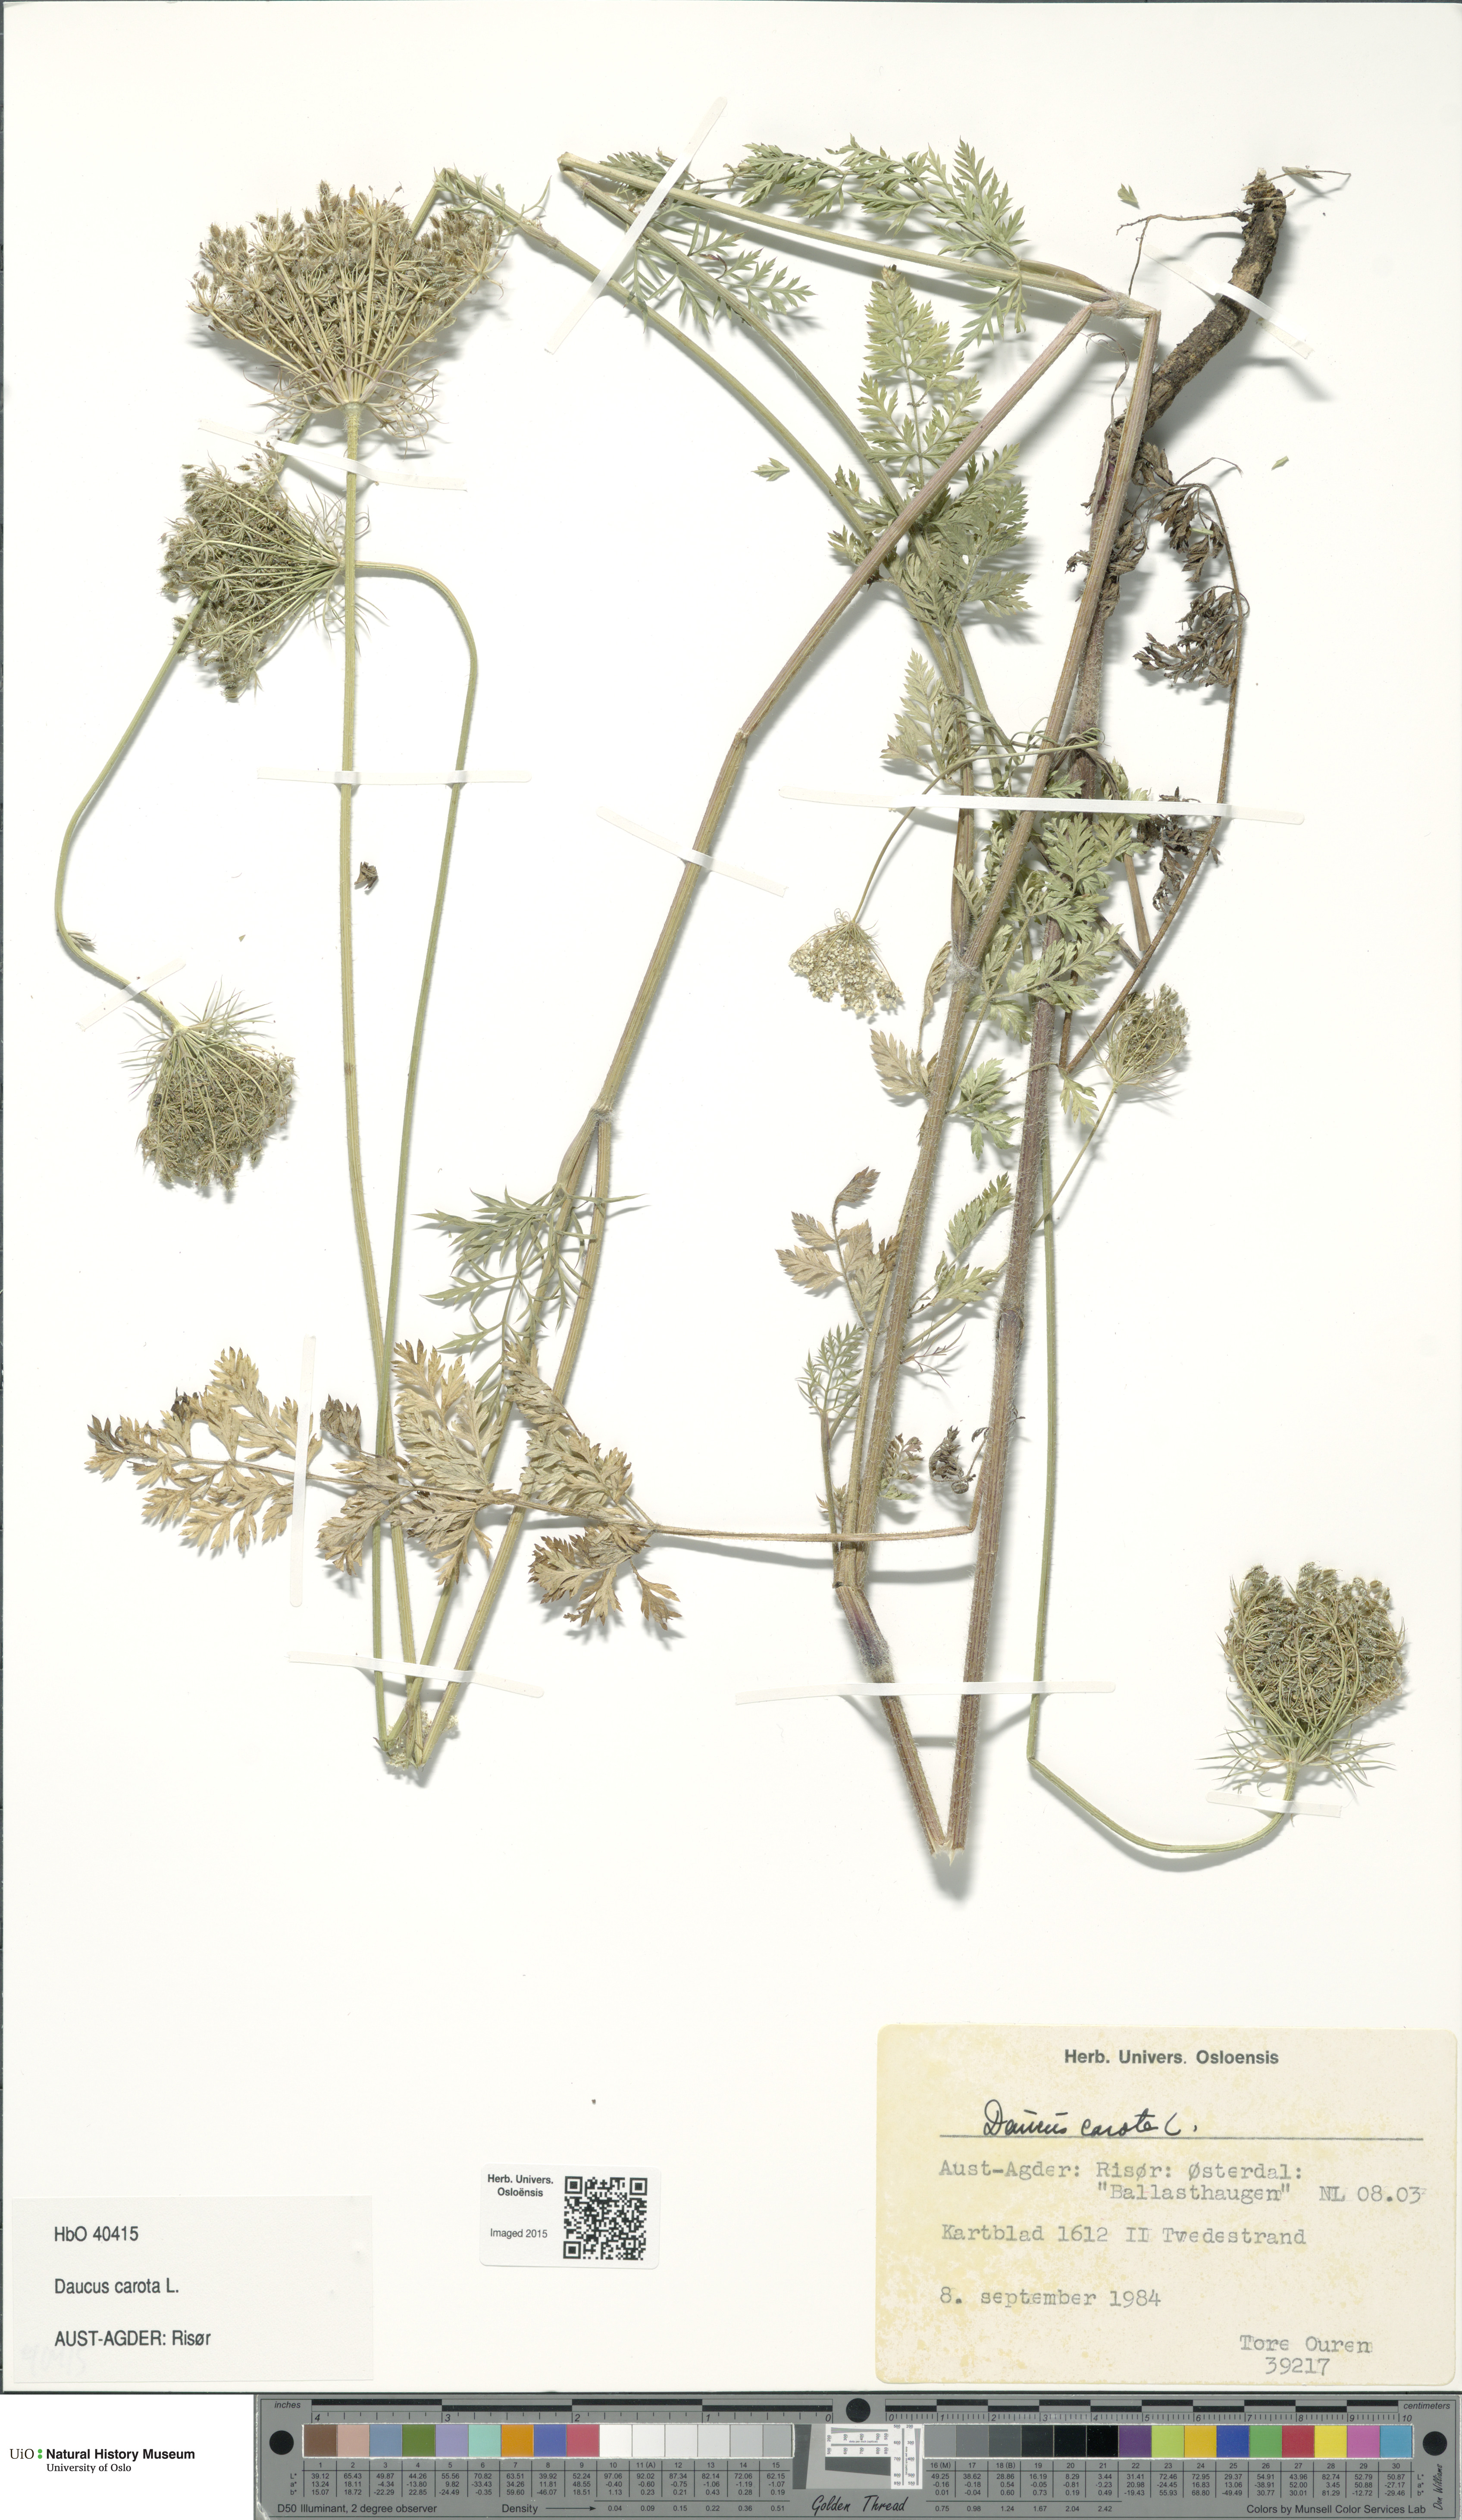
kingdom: Plantae
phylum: Tracheophyta
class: Magnoliopsida
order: Apiales
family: Apiaceae
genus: Daucus
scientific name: Daucus carota
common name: Wild carrot
